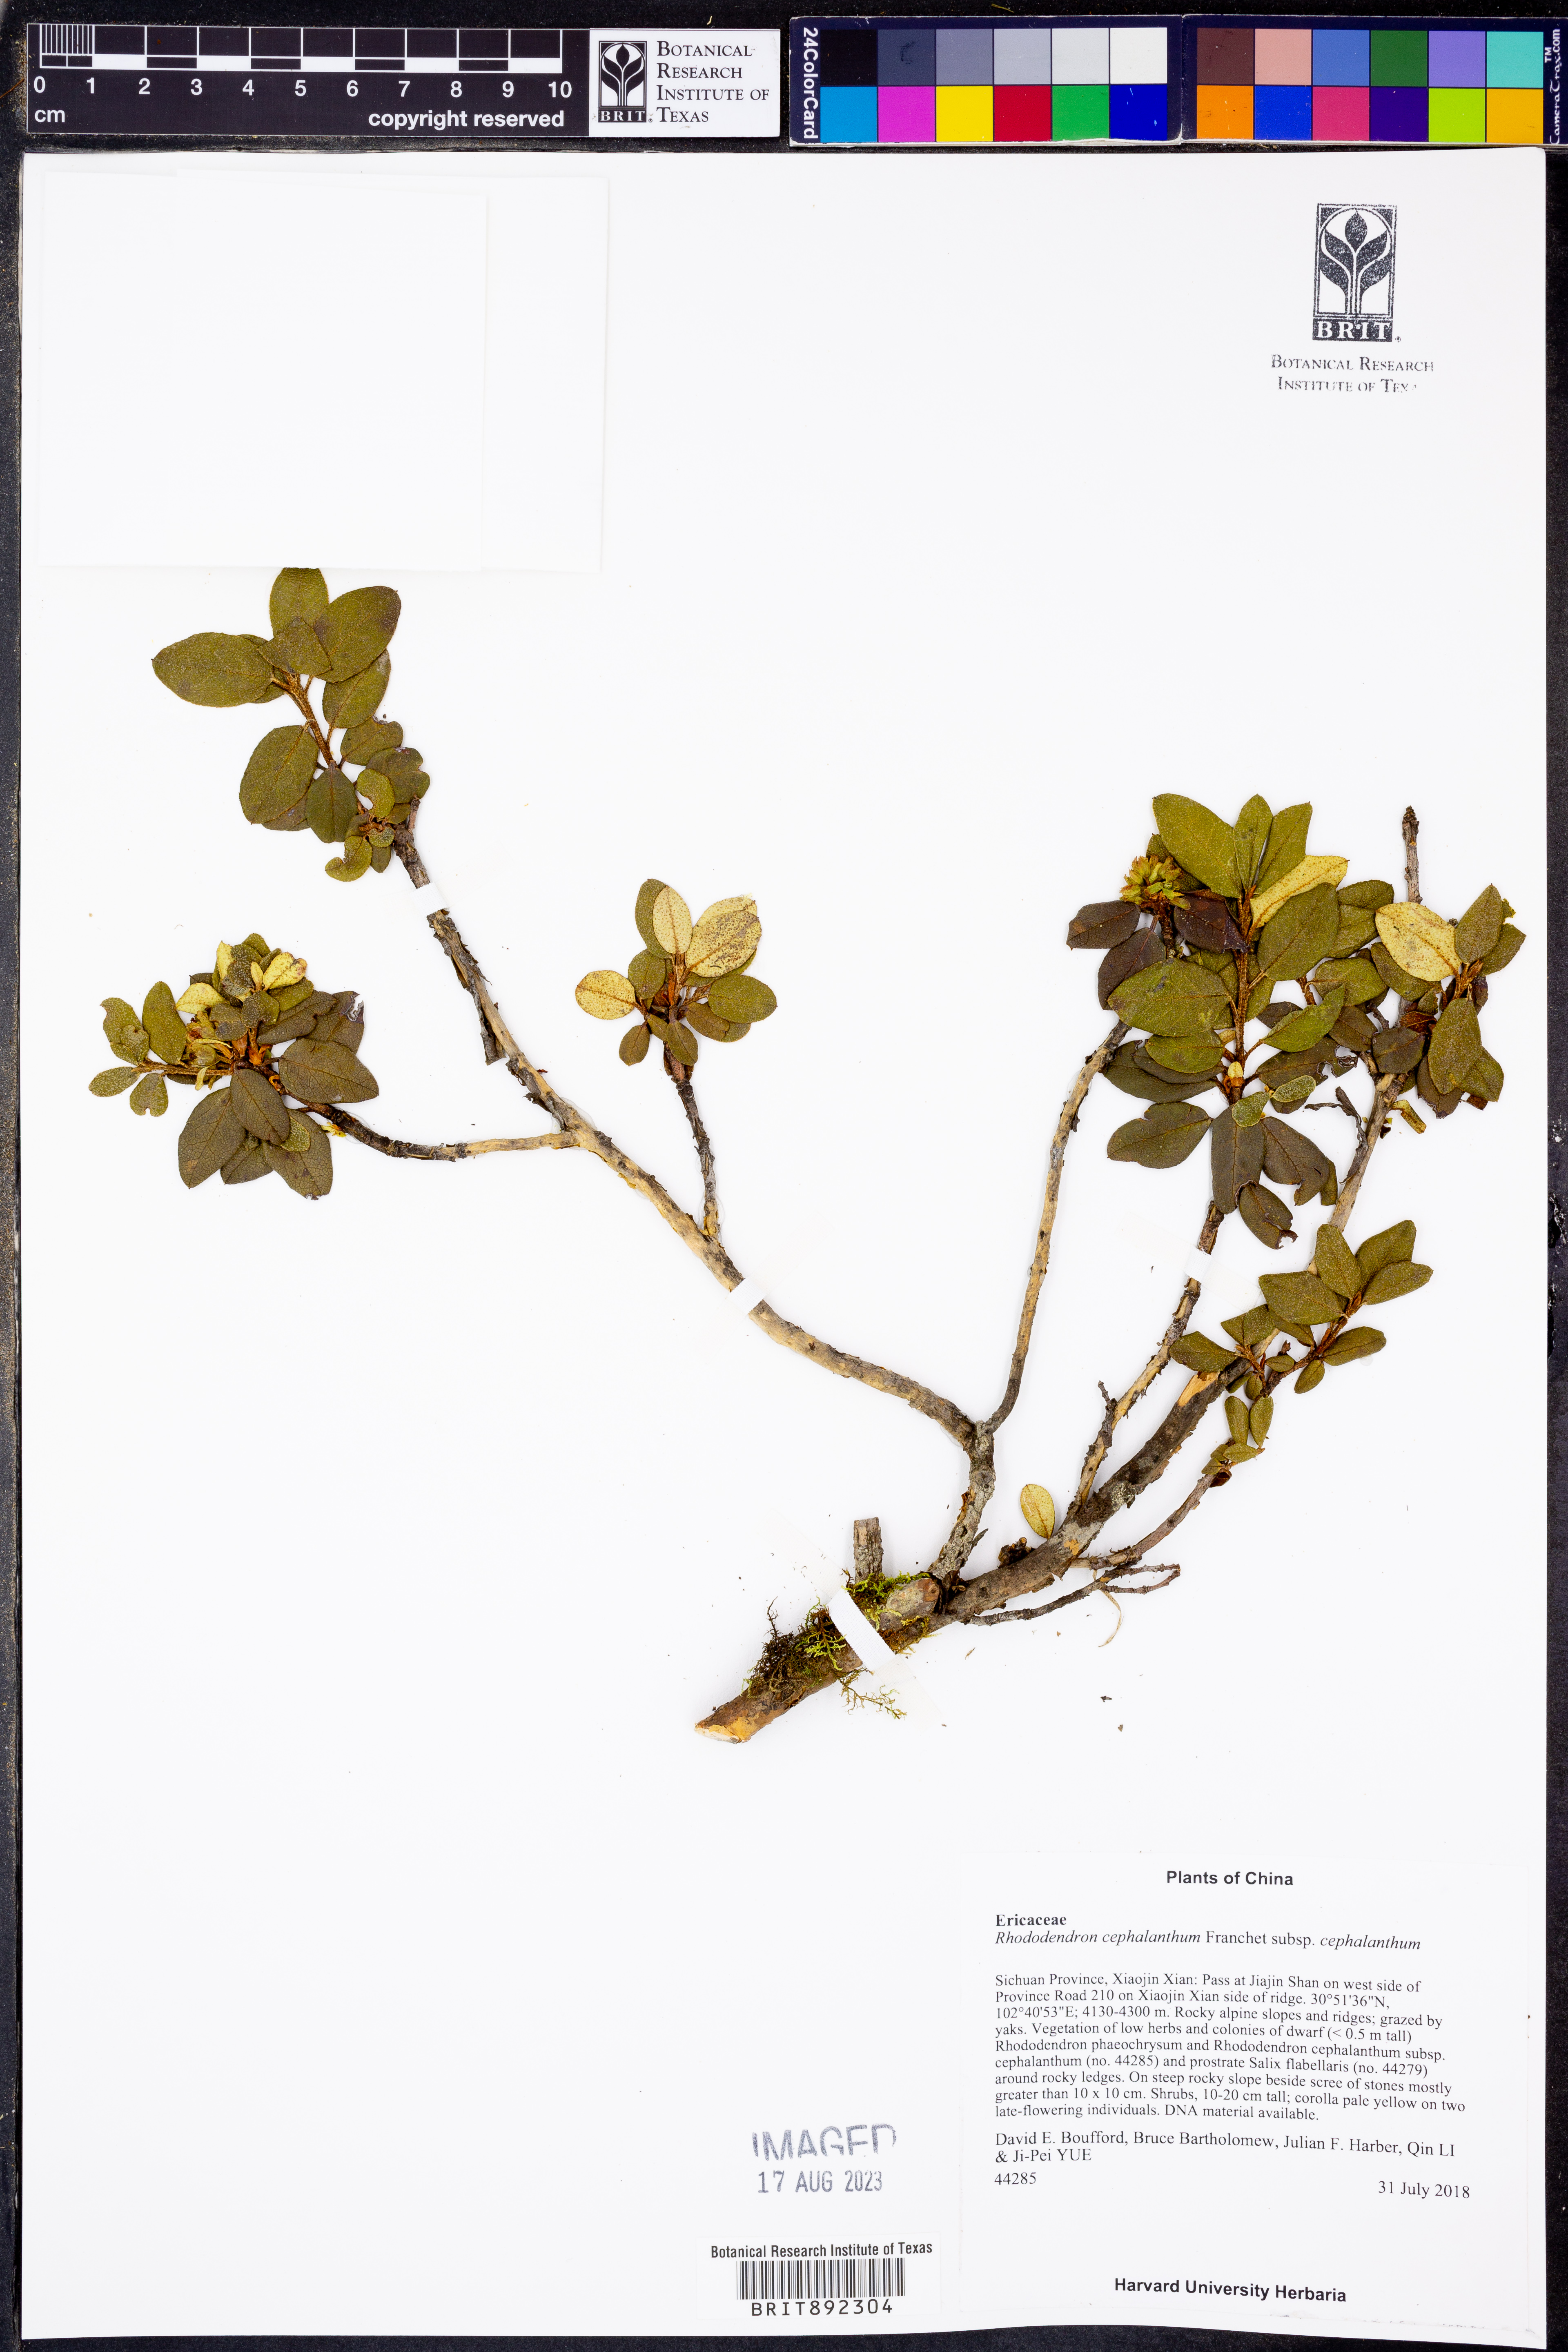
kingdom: Plantae
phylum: Tracheophyta
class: Magnoliopsida
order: Ericales
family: Ericaceae
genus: Rhododendron
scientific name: Rhododendron cephalanthum
